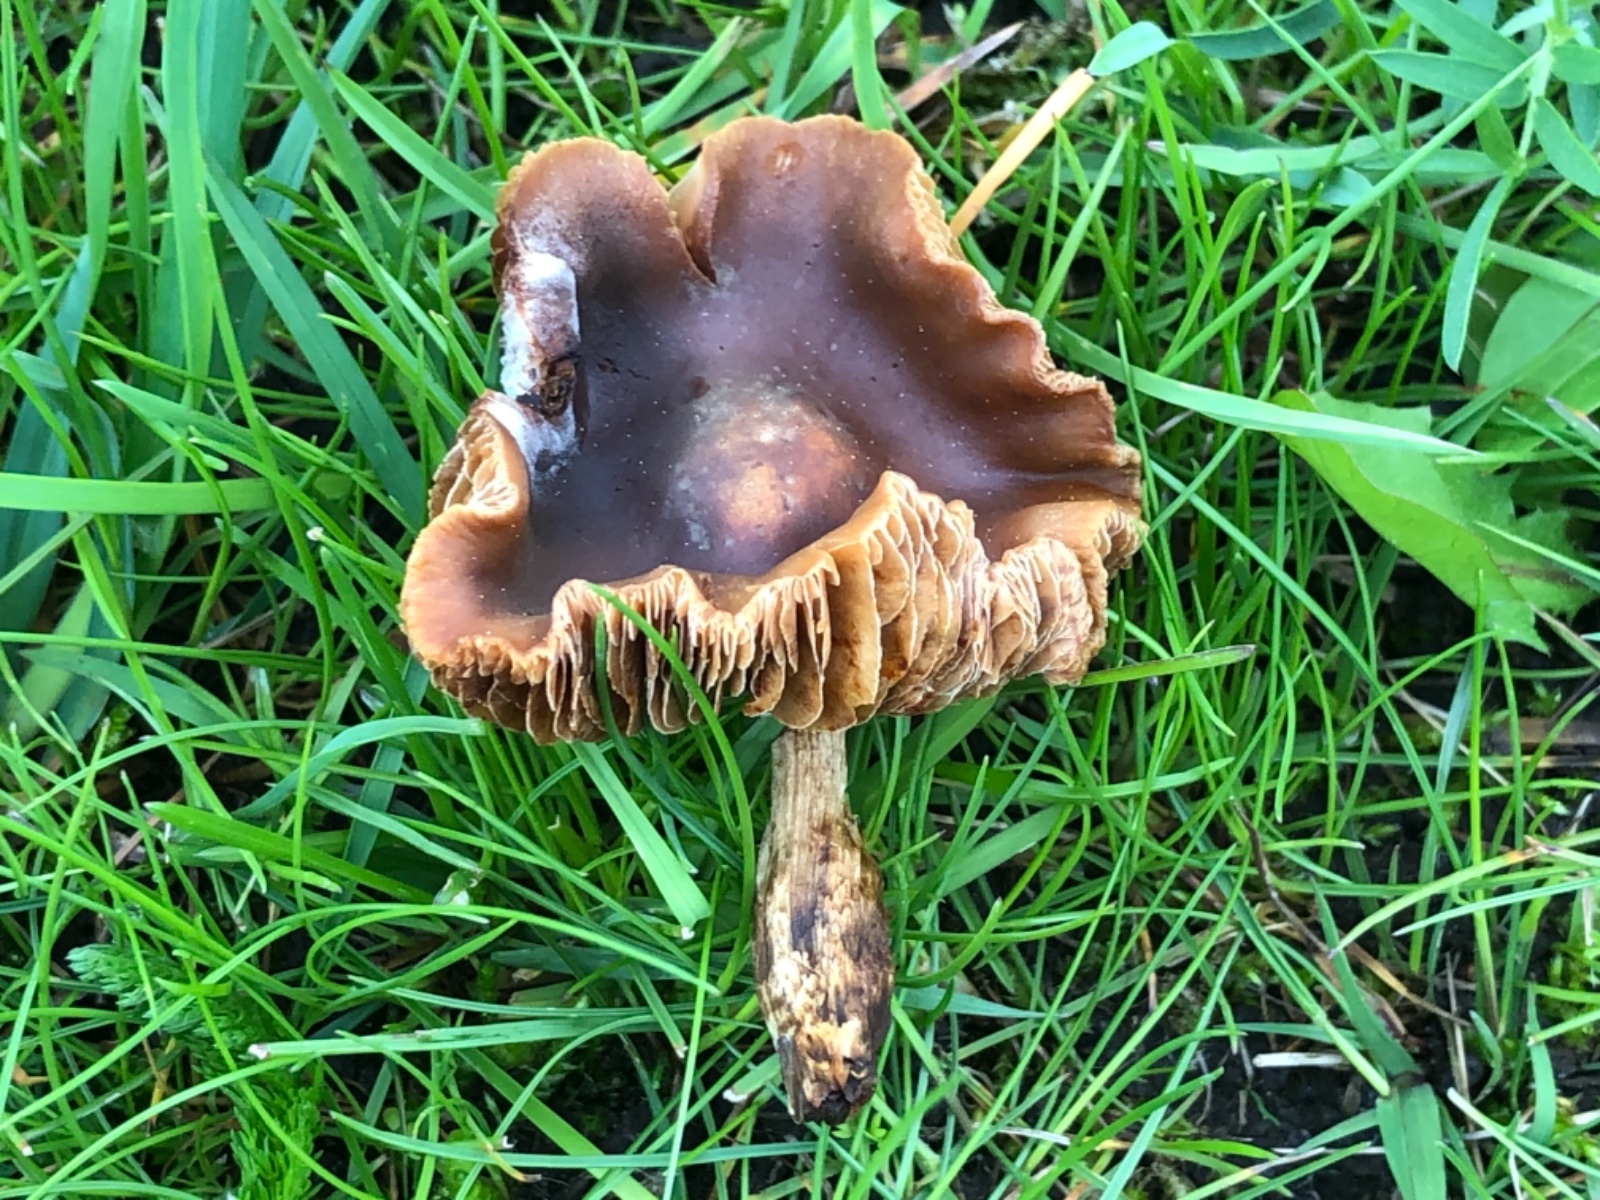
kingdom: Fungi
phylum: Basidiomycota
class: Agaricomycetes
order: Agaricales
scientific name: Agaricales
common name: champignonordenen
